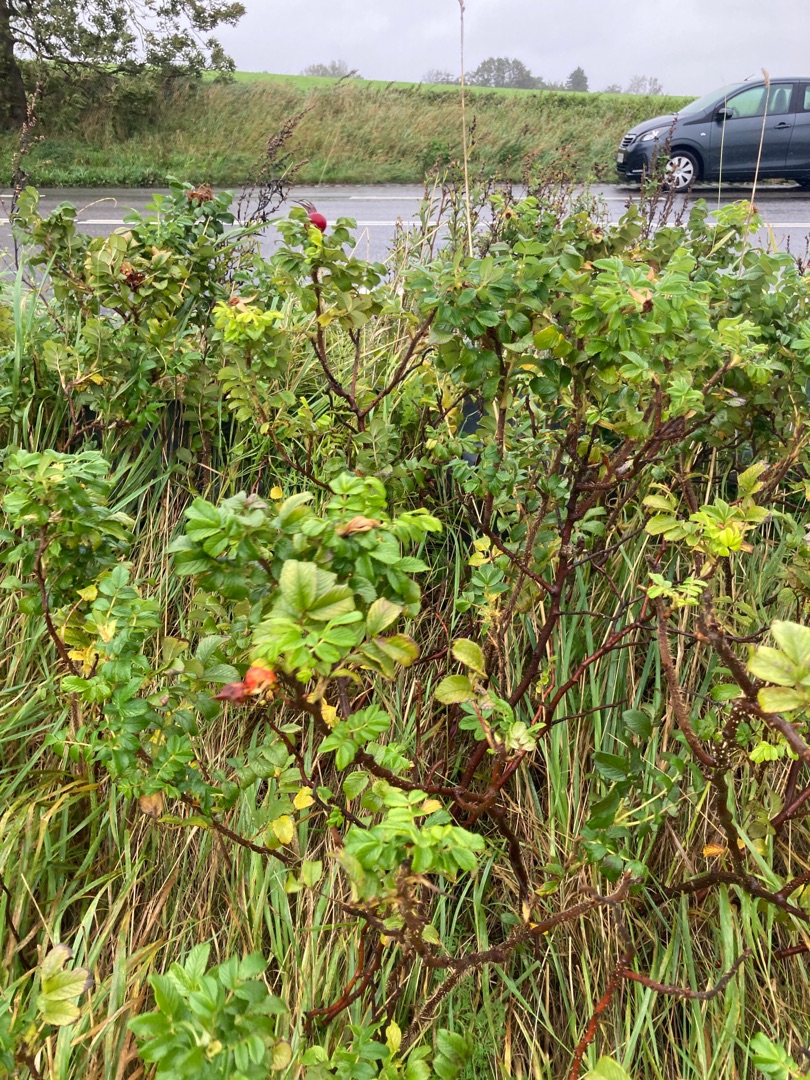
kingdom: Plantae
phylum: Tracheophyta
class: Magnoliopsida
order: Rosales
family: Rosaceae
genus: Rosa
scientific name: Rosa rugosa
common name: Rynket rose
